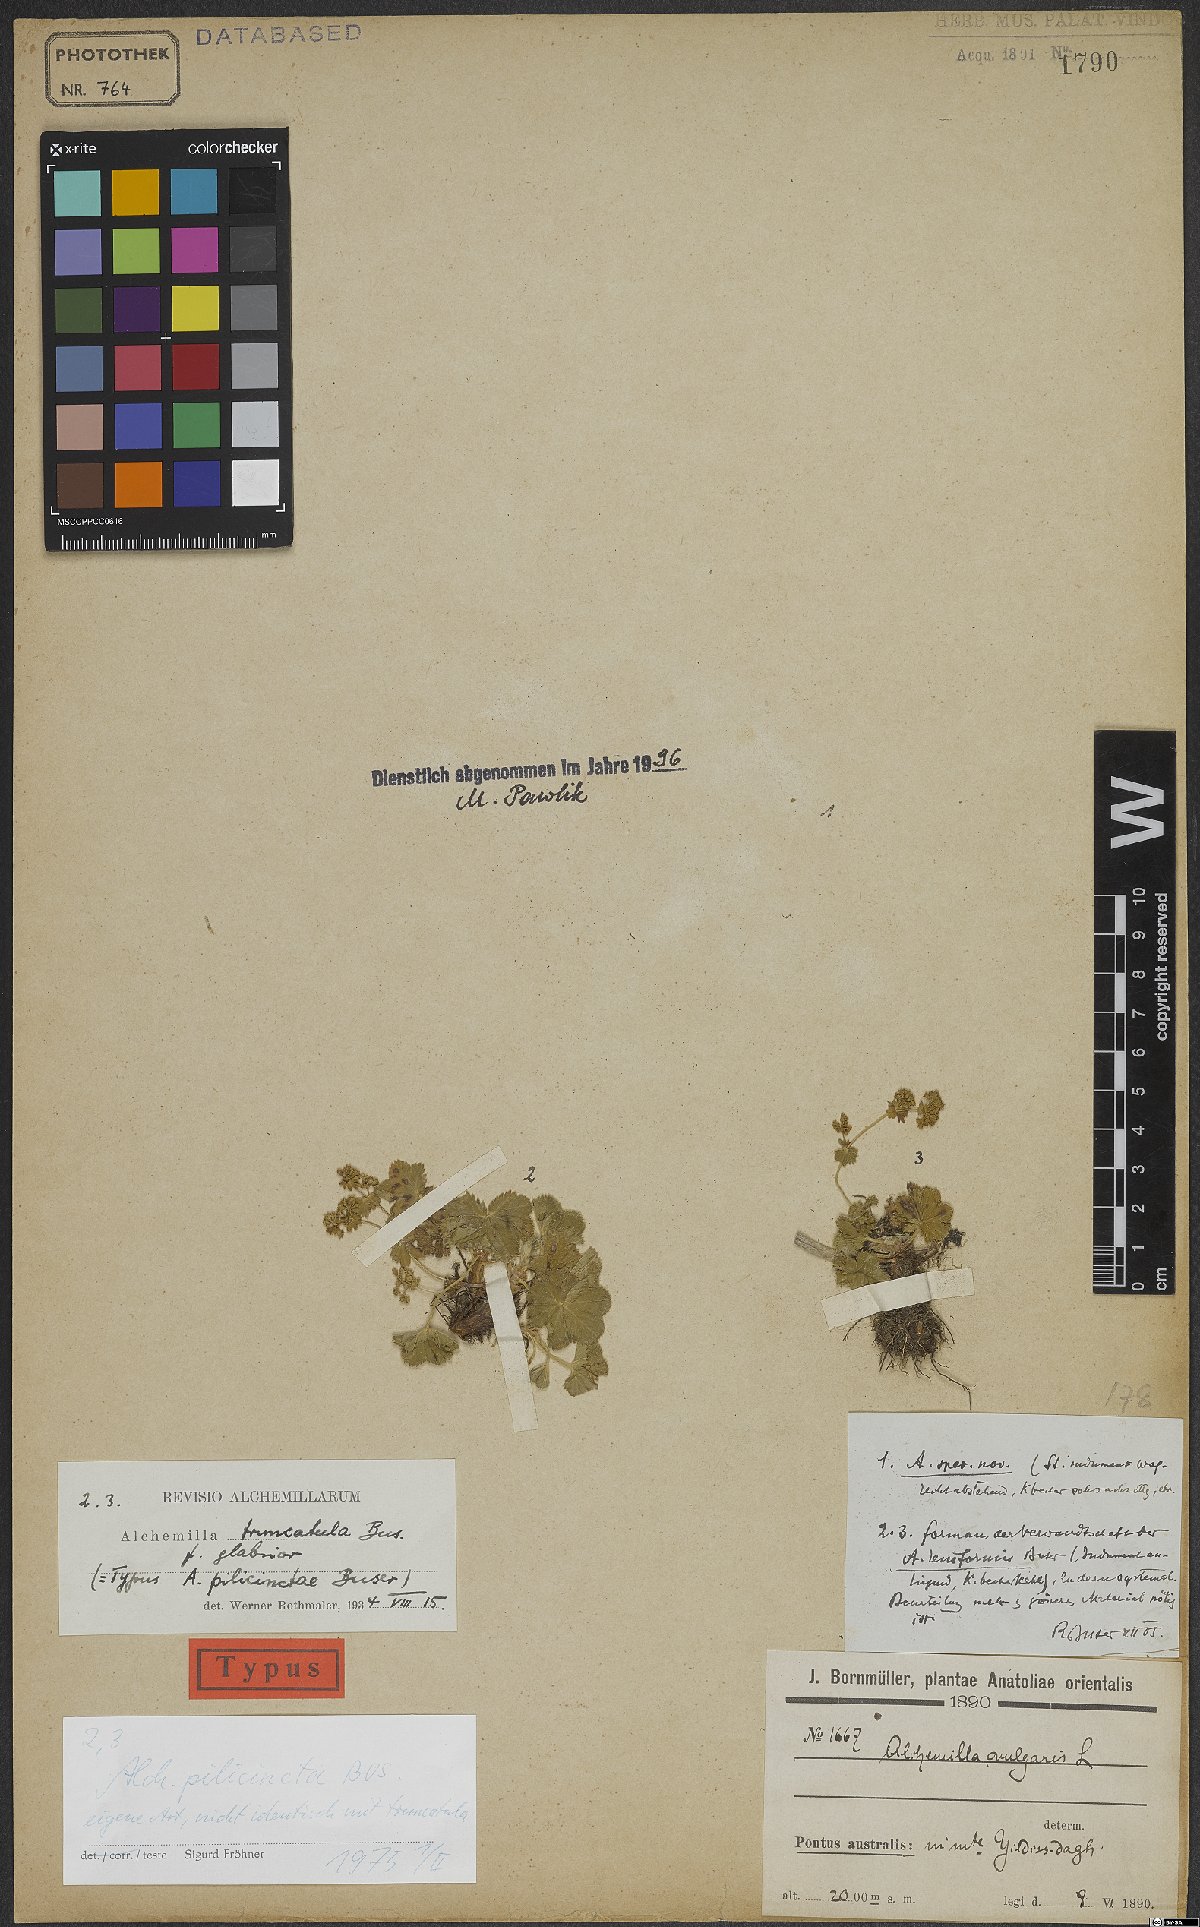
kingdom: Plantae
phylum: Tracheophyta
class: Magnoliopsida
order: Rosales
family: Rosaceae
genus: Alchemilla
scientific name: Alchemilla pilicincta
